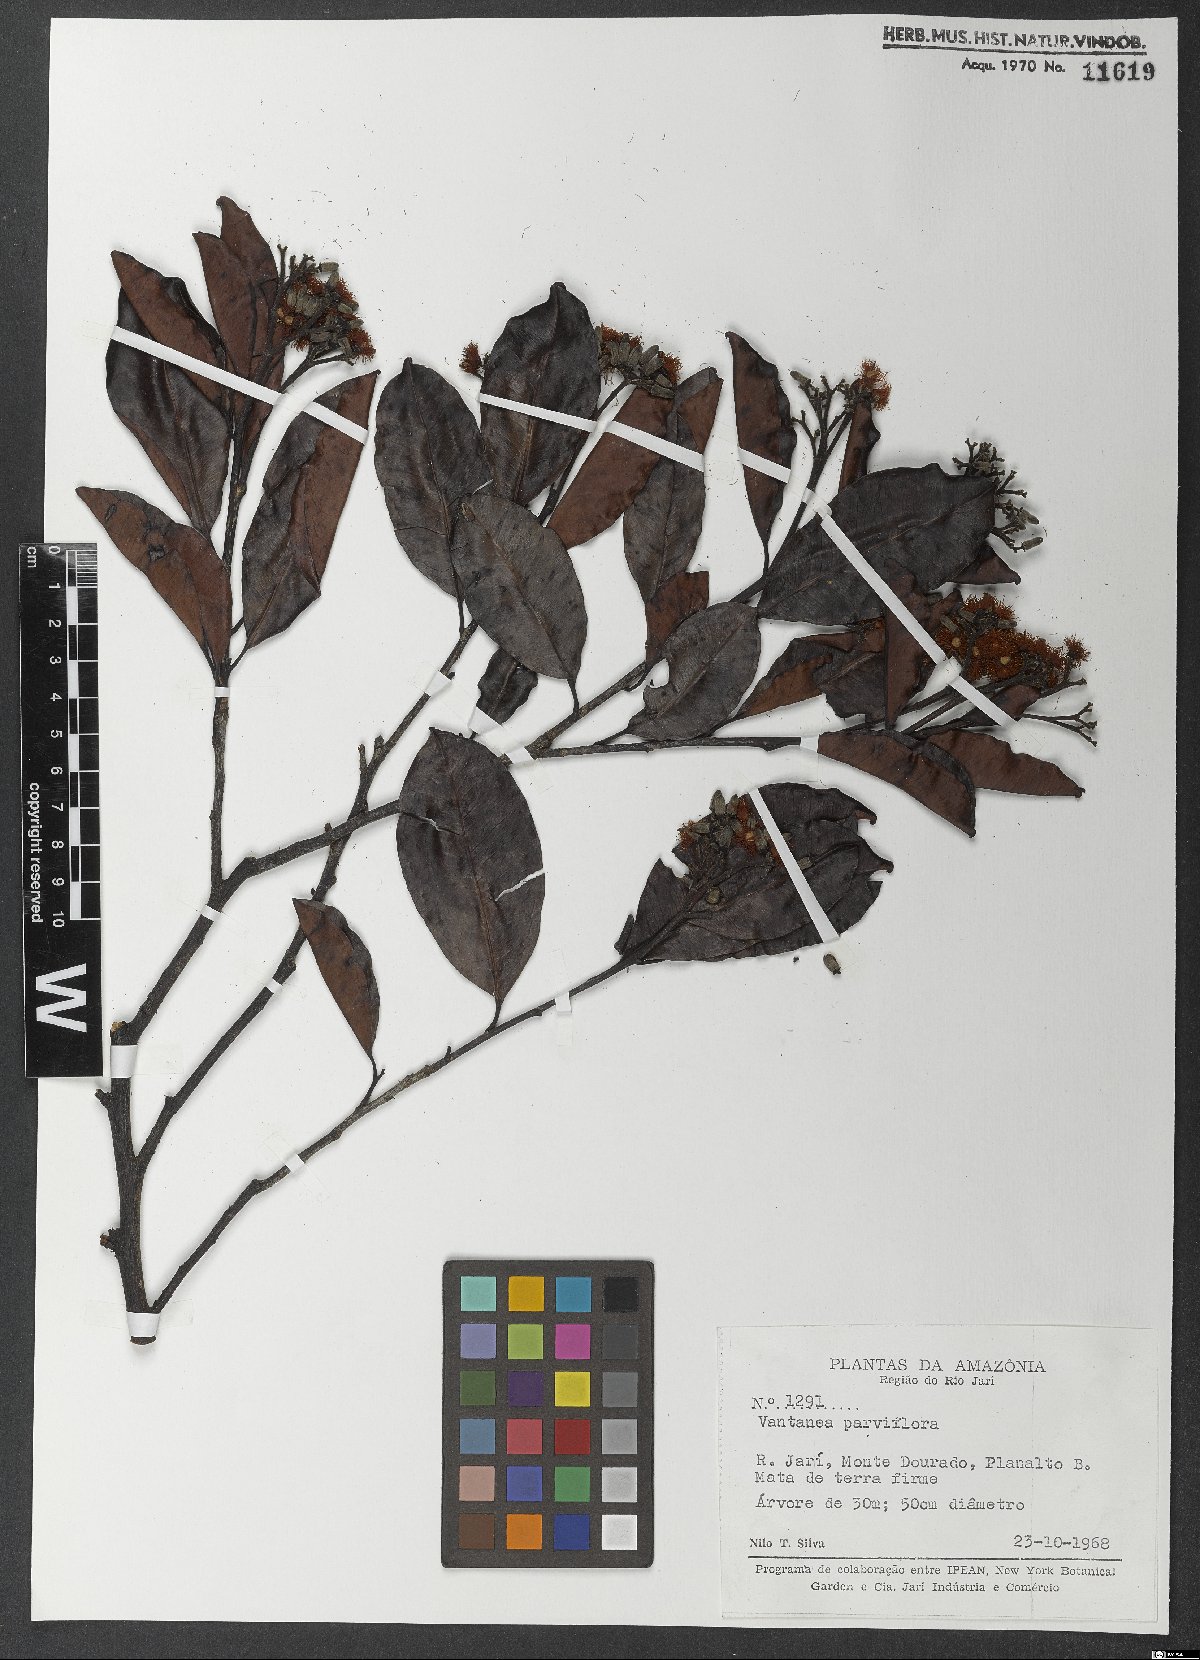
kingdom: Plantae
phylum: Tracheophyta
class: Magnoliopsida
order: Malpighiales
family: Humiriaceae
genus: Vantanea
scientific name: Vantanea parviflora
